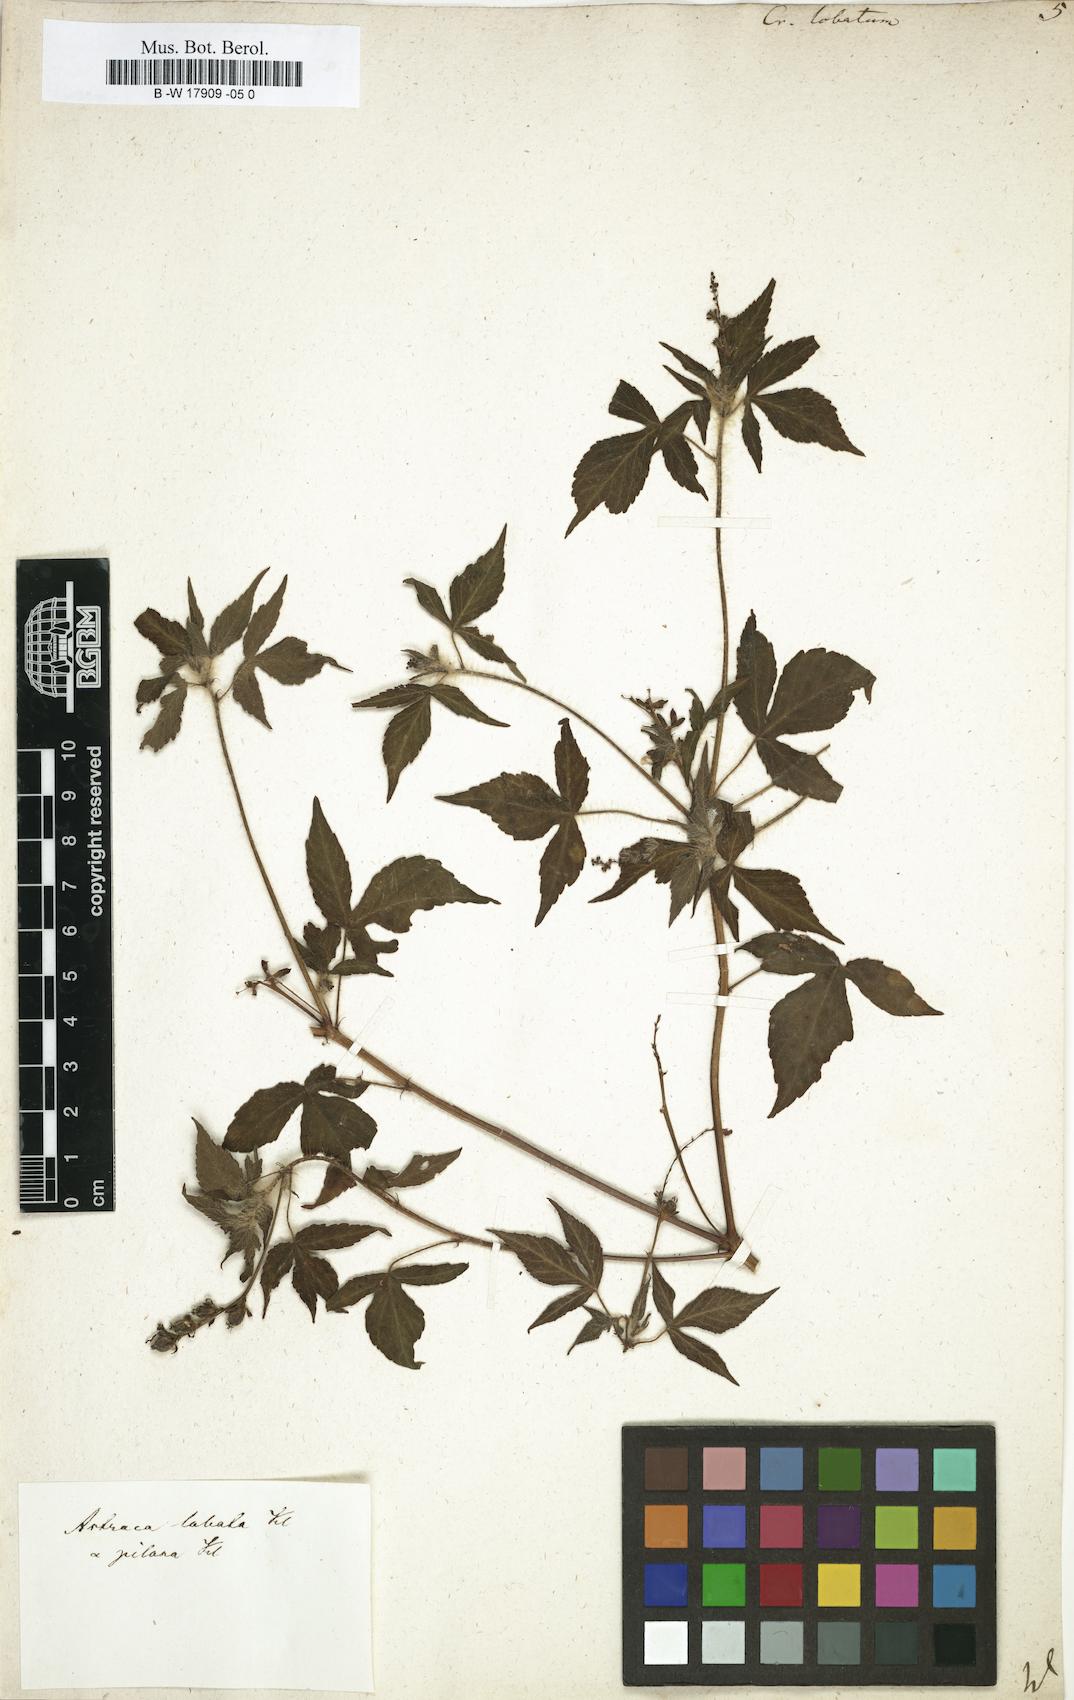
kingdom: Plantae
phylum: Tracheophyta
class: Magnoliopsida
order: Malpighiales
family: Euphorbiaceae
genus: Astraea
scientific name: Astraea lobata
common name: Lobed croton
